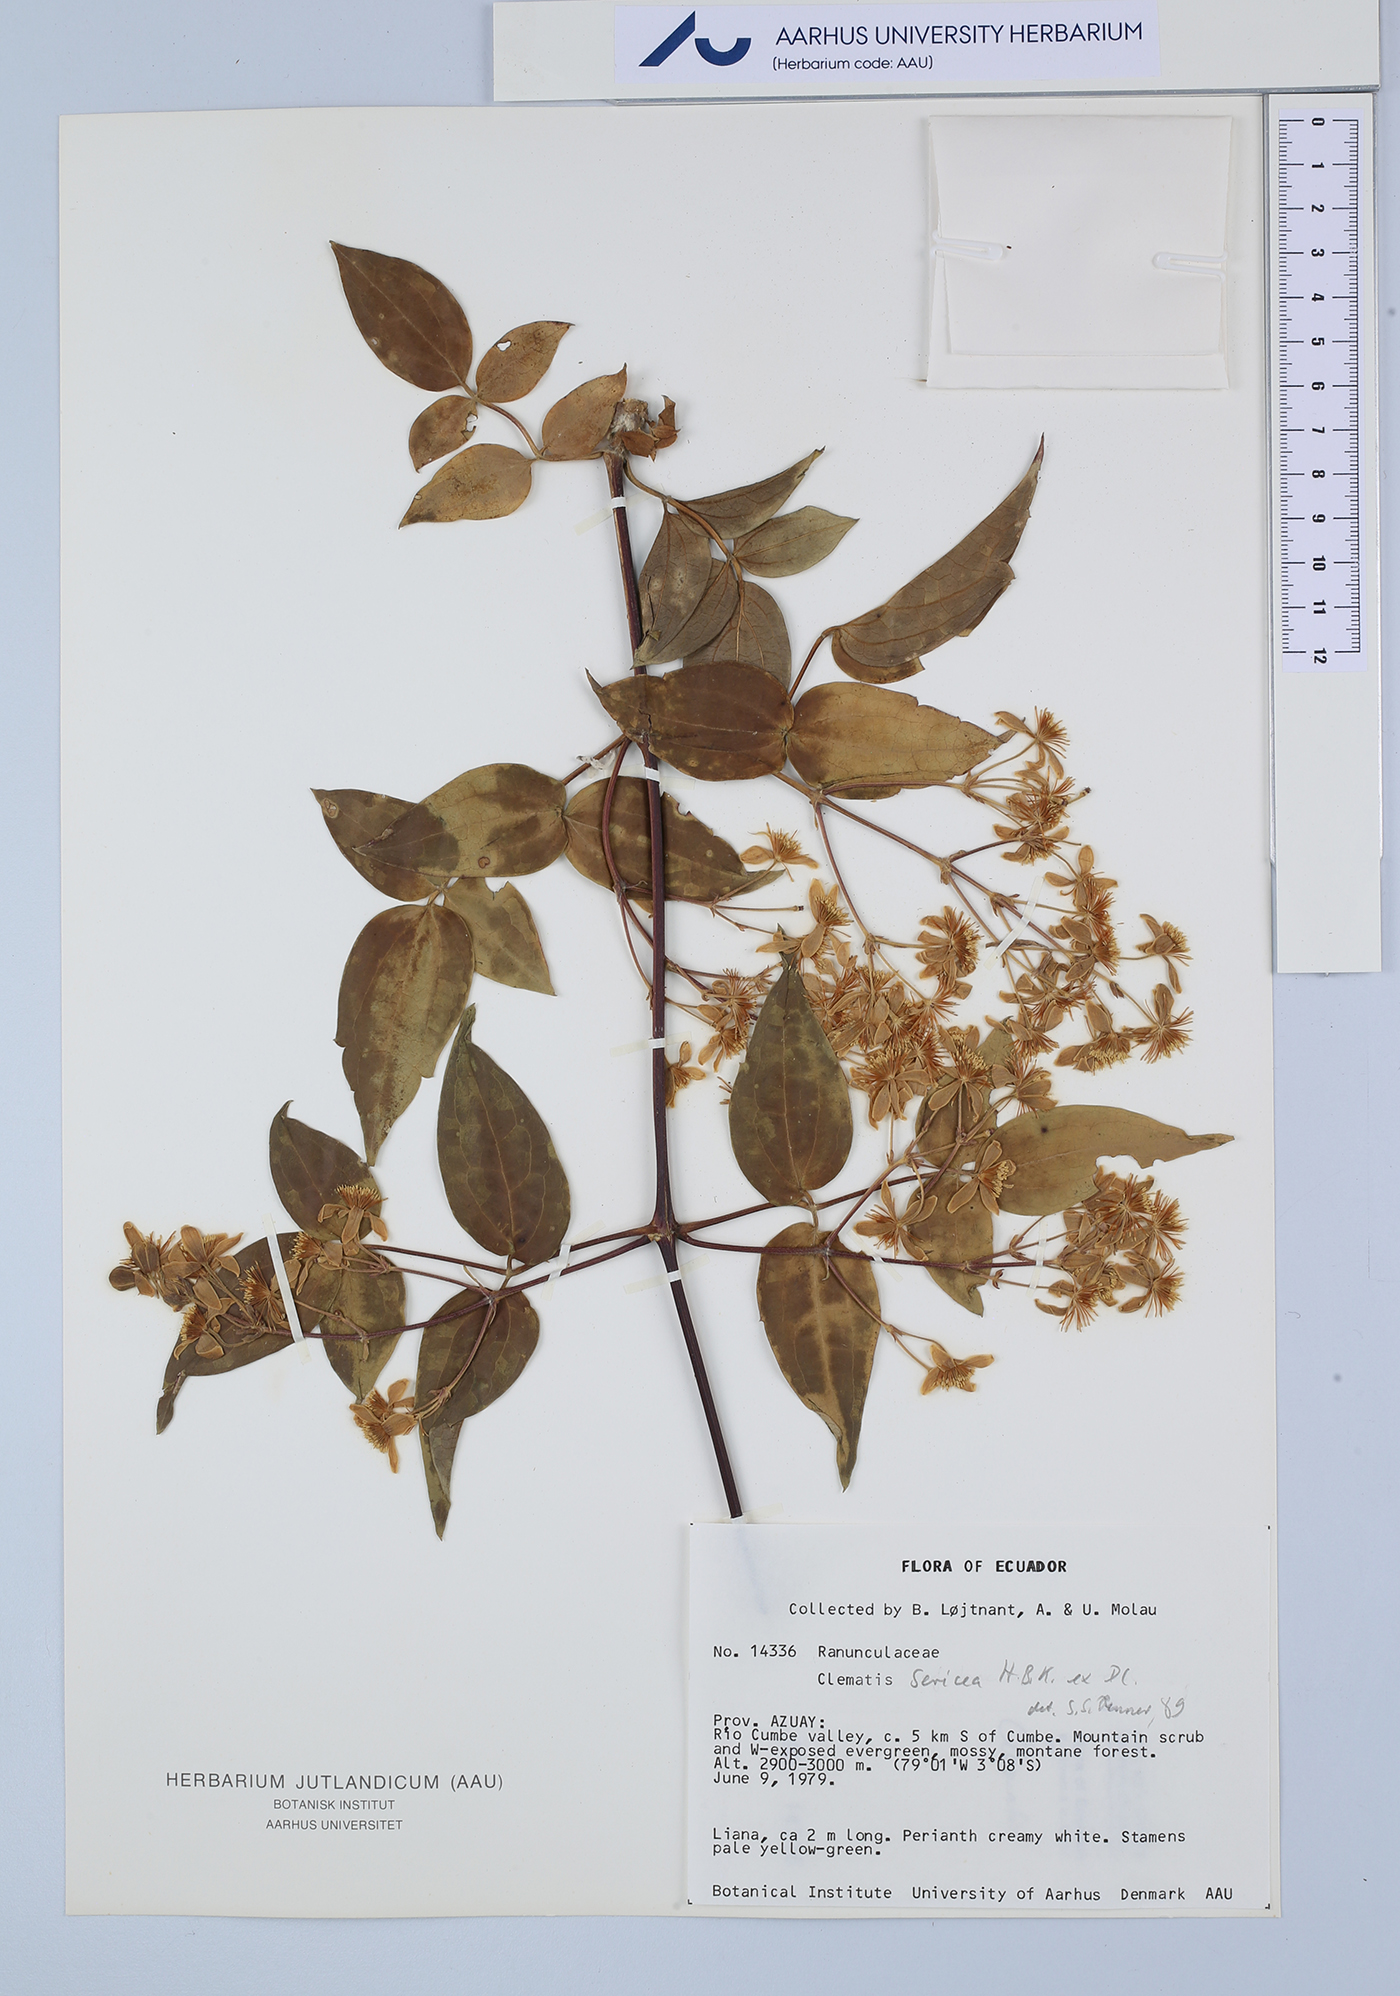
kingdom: Plantae
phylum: Tracheophyta
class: Magnoliopsida
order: Ranunculales
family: Ranunculaceae
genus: Clematis
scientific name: Clematis haenkeana
